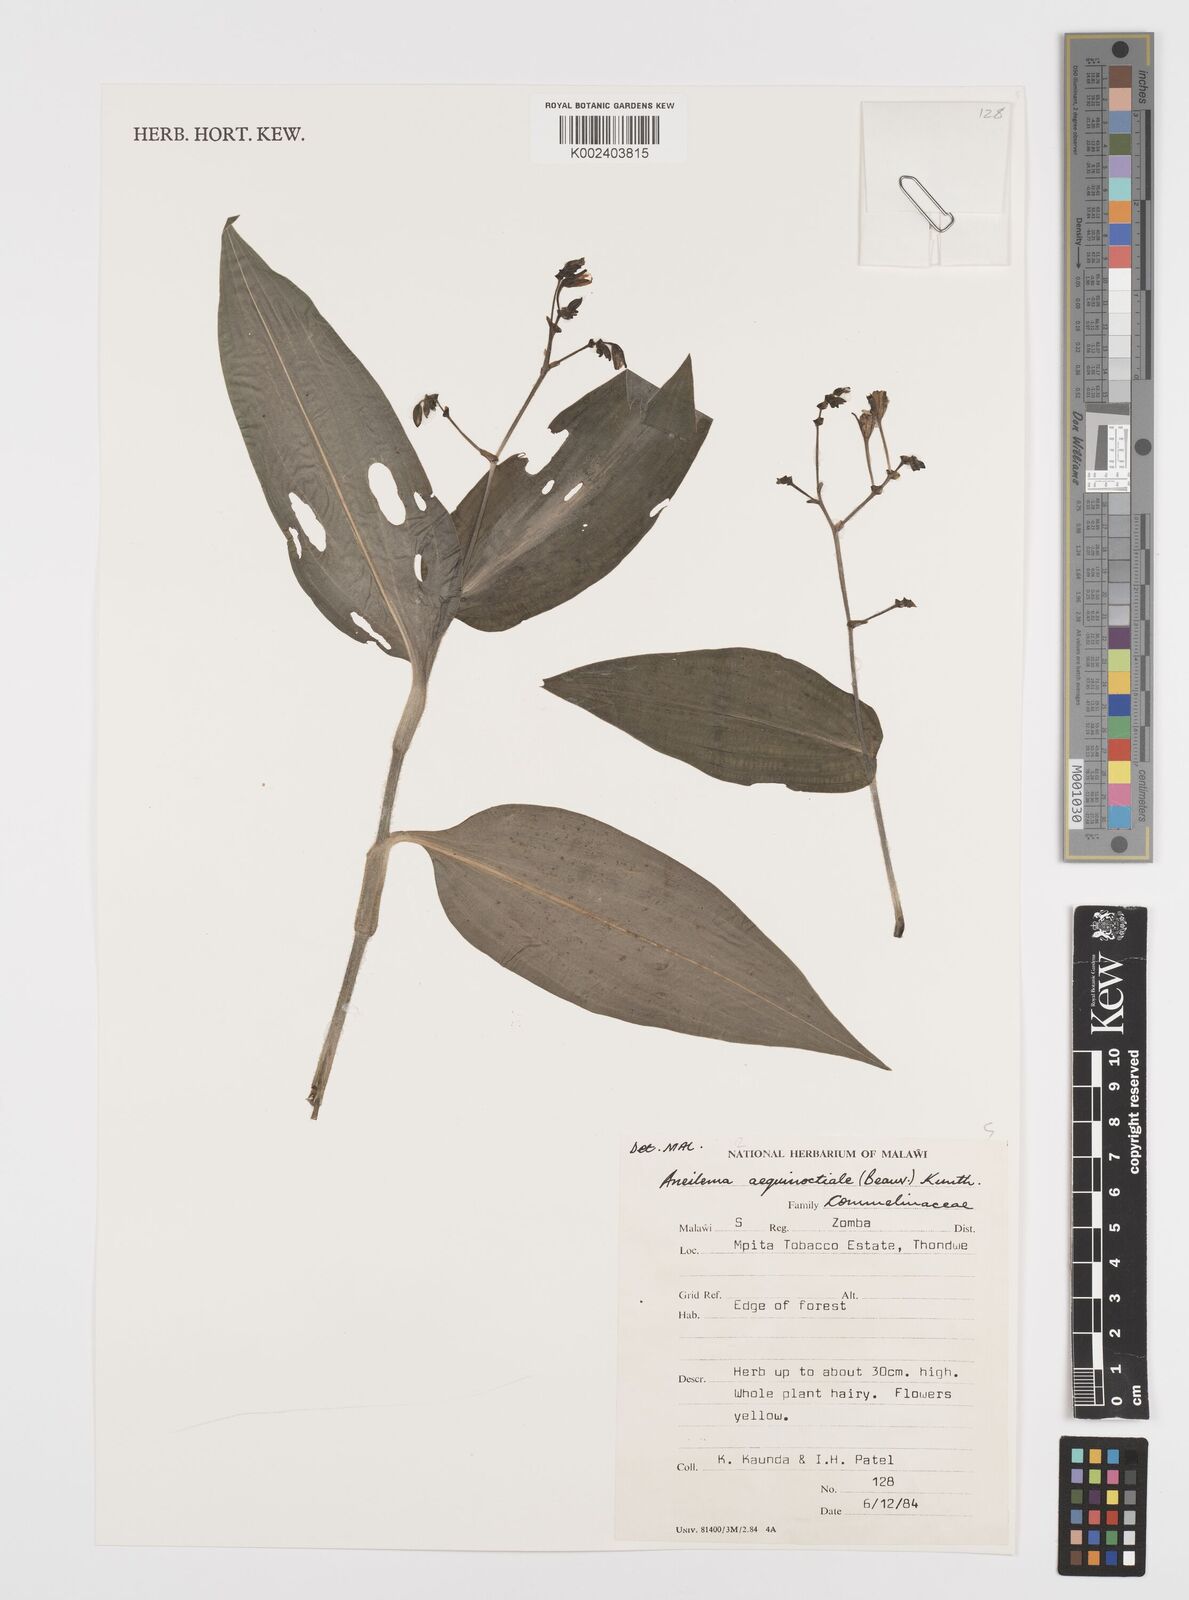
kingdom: Plantae
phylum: Tracheophyta
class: Liliopsida
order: Commelinales
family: Commelinaceae
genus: Aneilema
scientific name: Aneilema aequinoctiale
